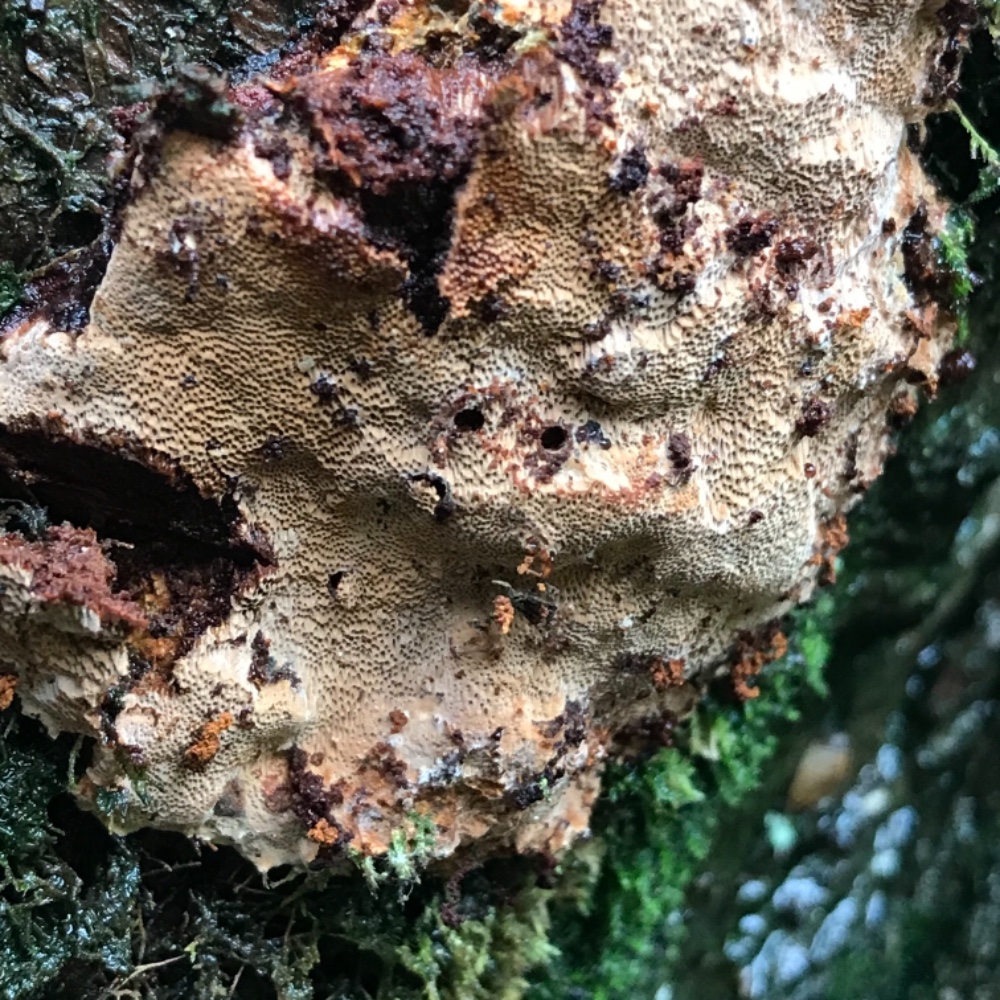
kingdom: Fungi
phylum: Basidiomycota
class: Agaricomycetes
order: Hymenochaetales
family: Hymenochaetaceae
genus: Fuscoporia
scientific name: Fuscoporia
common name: Ildporesvamp
